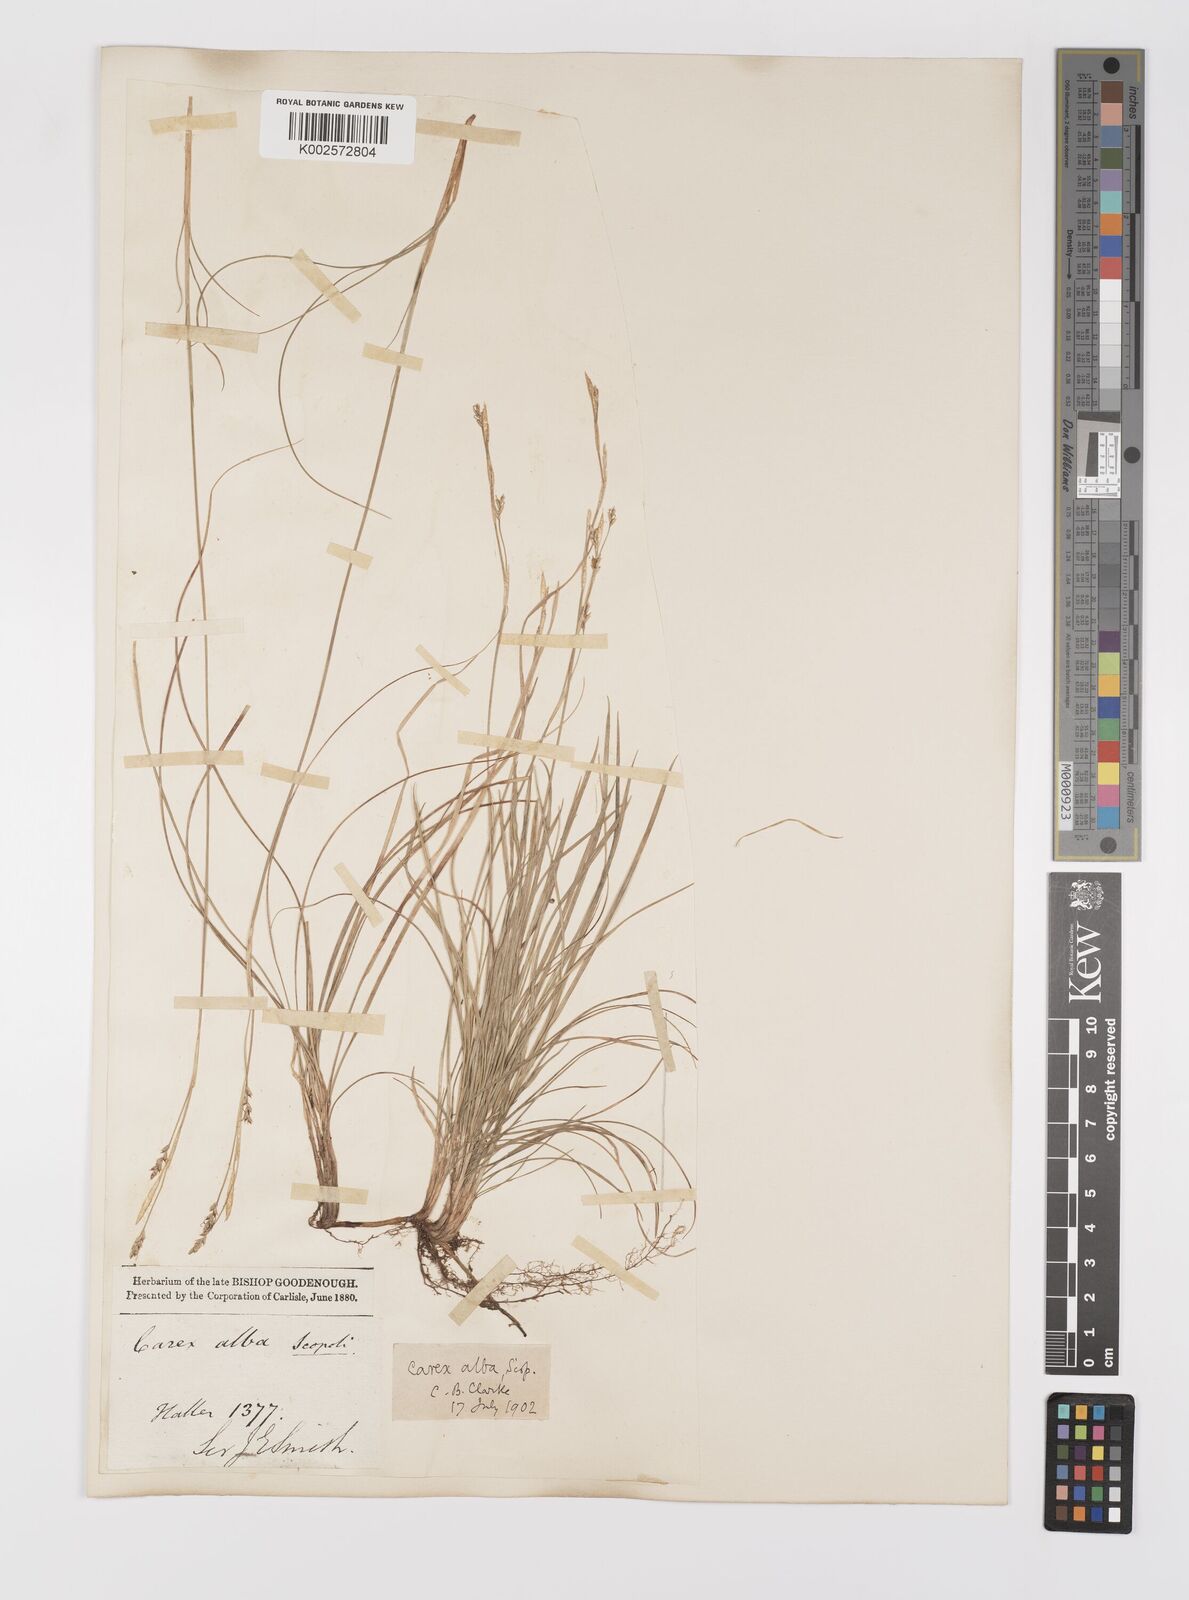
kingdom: Plantae
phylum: Tracheophyta
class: Liliopsida
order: Poales
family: Cyperaceae
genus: Carex
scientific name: Carex alba
